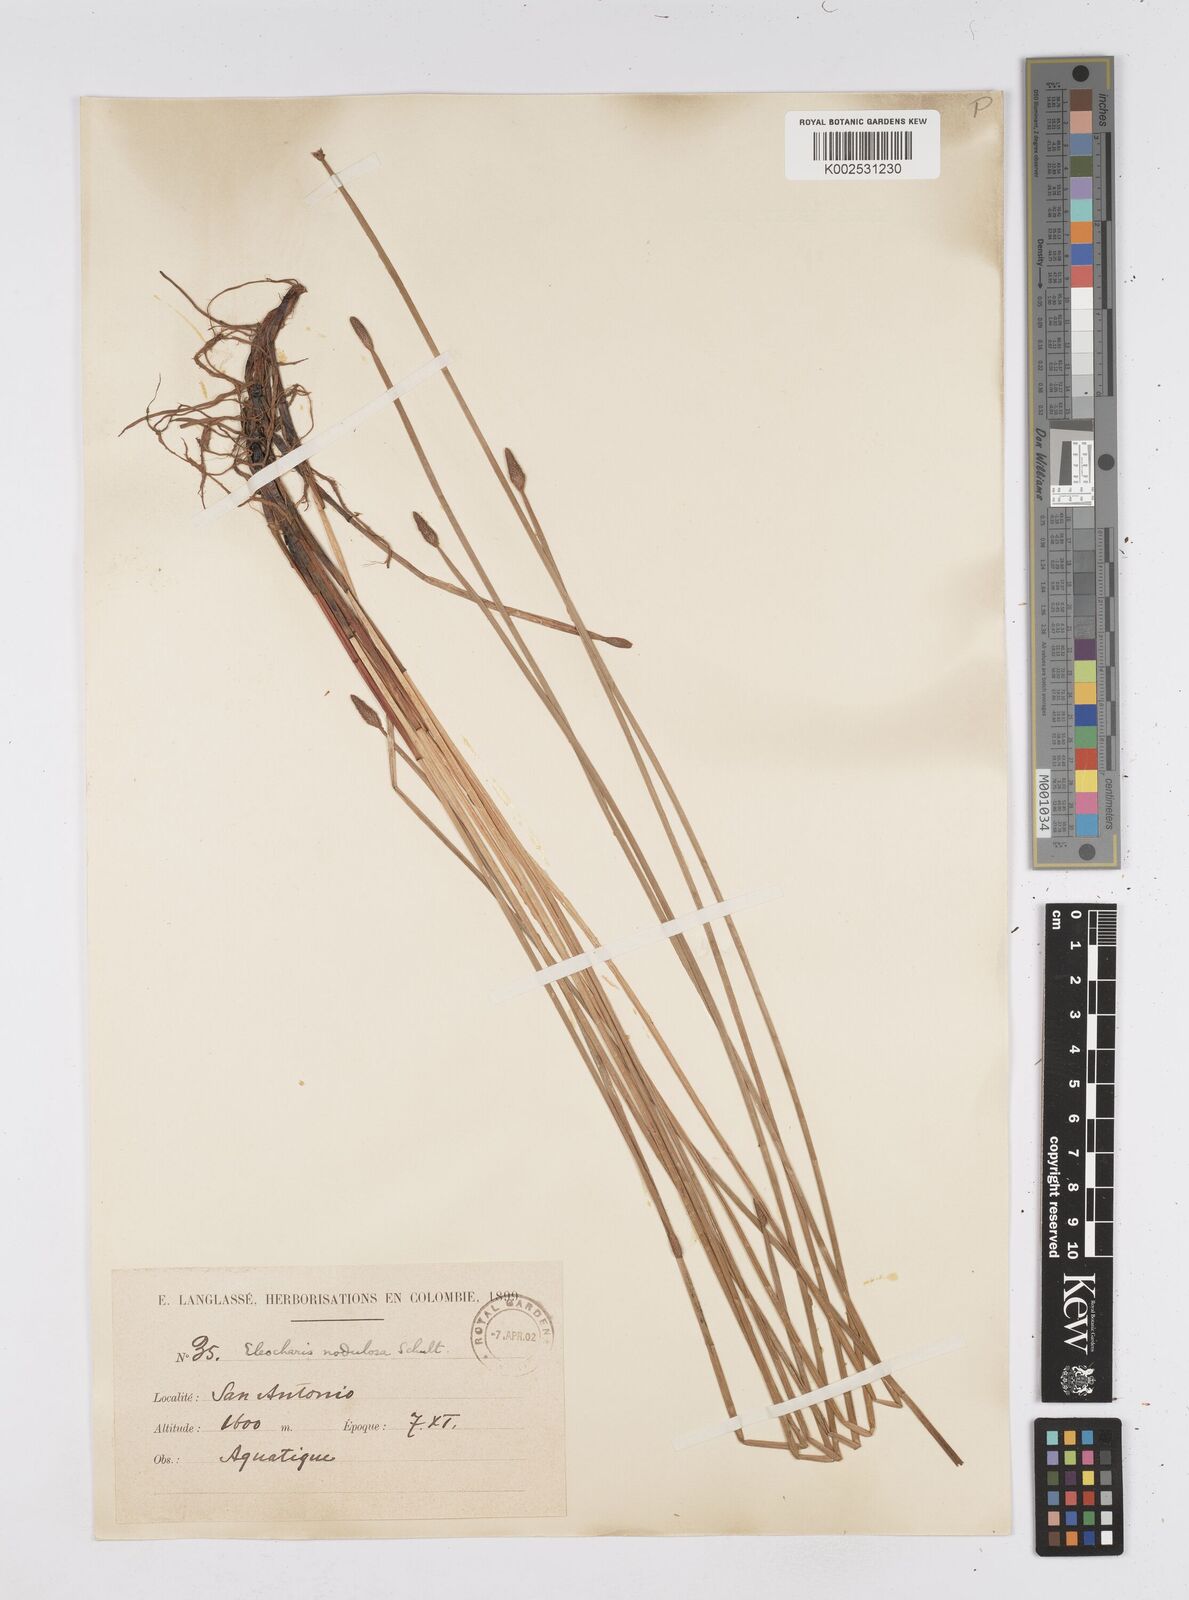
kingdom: Plantae
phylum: Tracheophyta
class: Liliopsida
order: Poales
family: Cyperaceae
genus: Eleocharis
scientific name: Eleocharis montana
